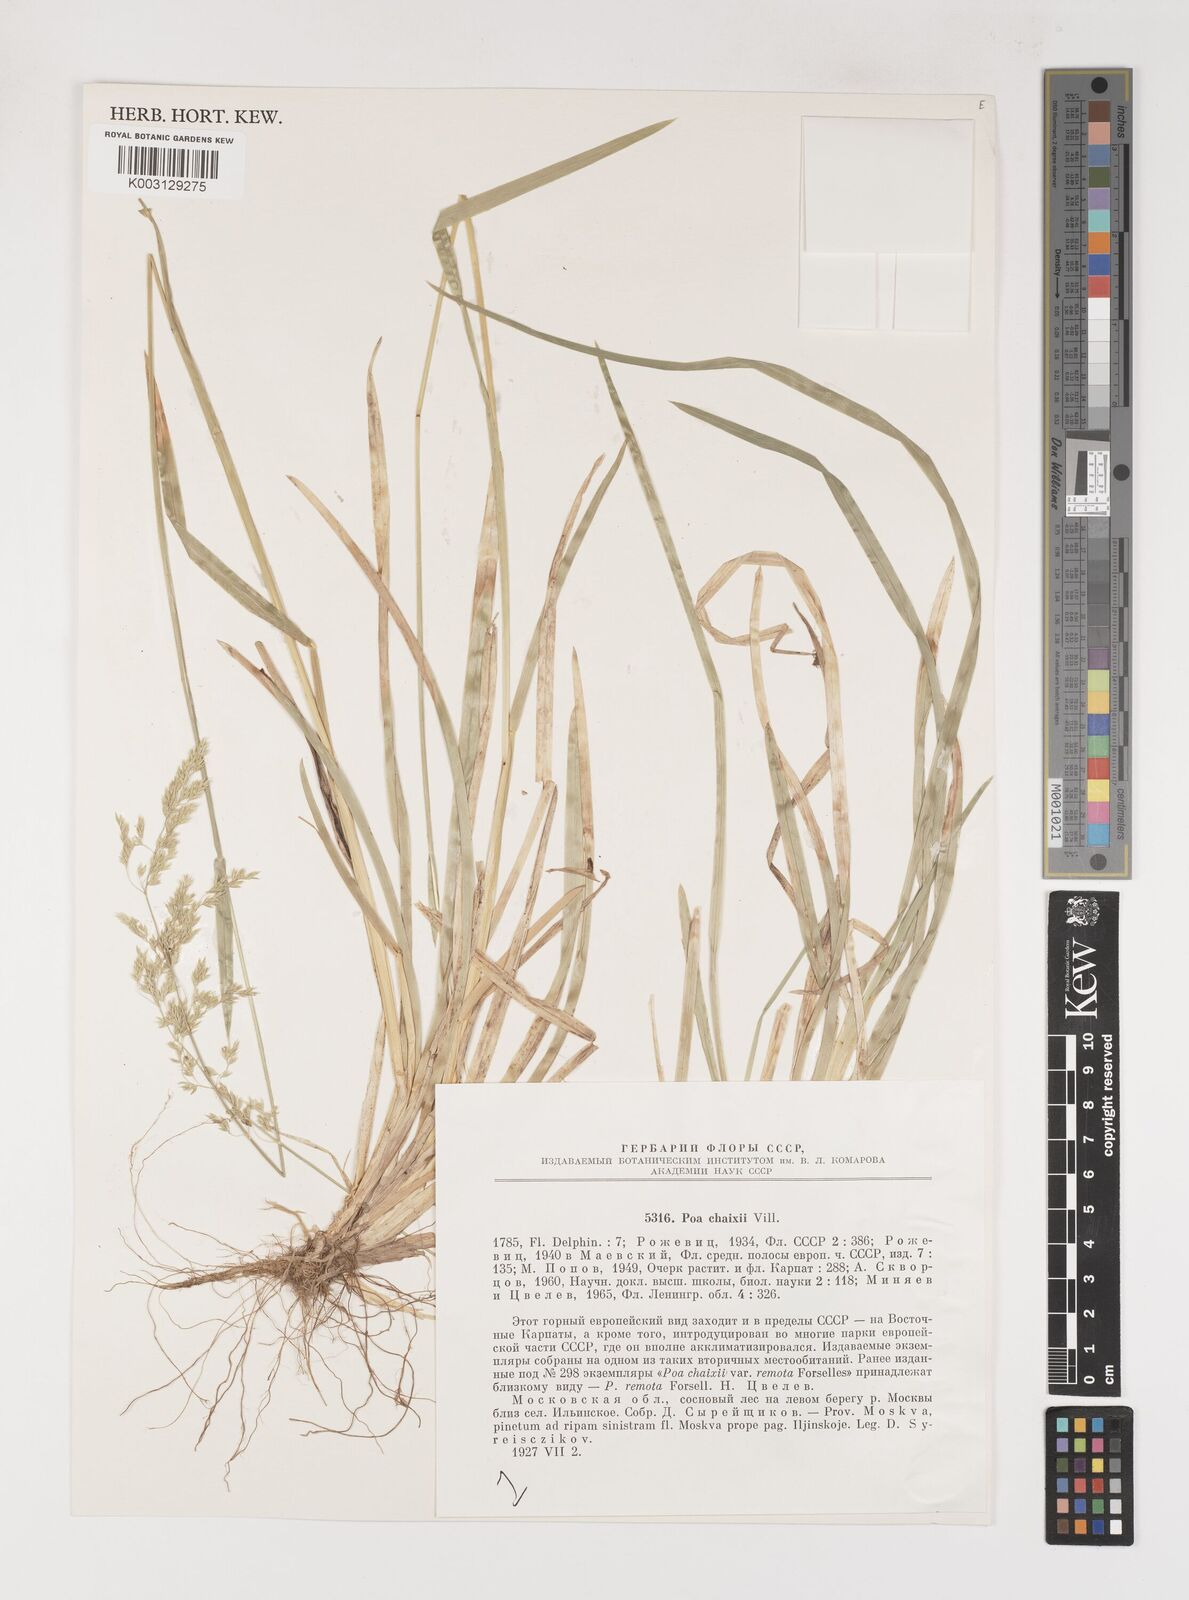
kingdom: Plantae
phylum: Tracheophyta
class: Liliopsida
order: Poales
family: Poaceae
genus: Poa
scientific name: Poa chaixii
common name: Broad-leaved meadow-grass
